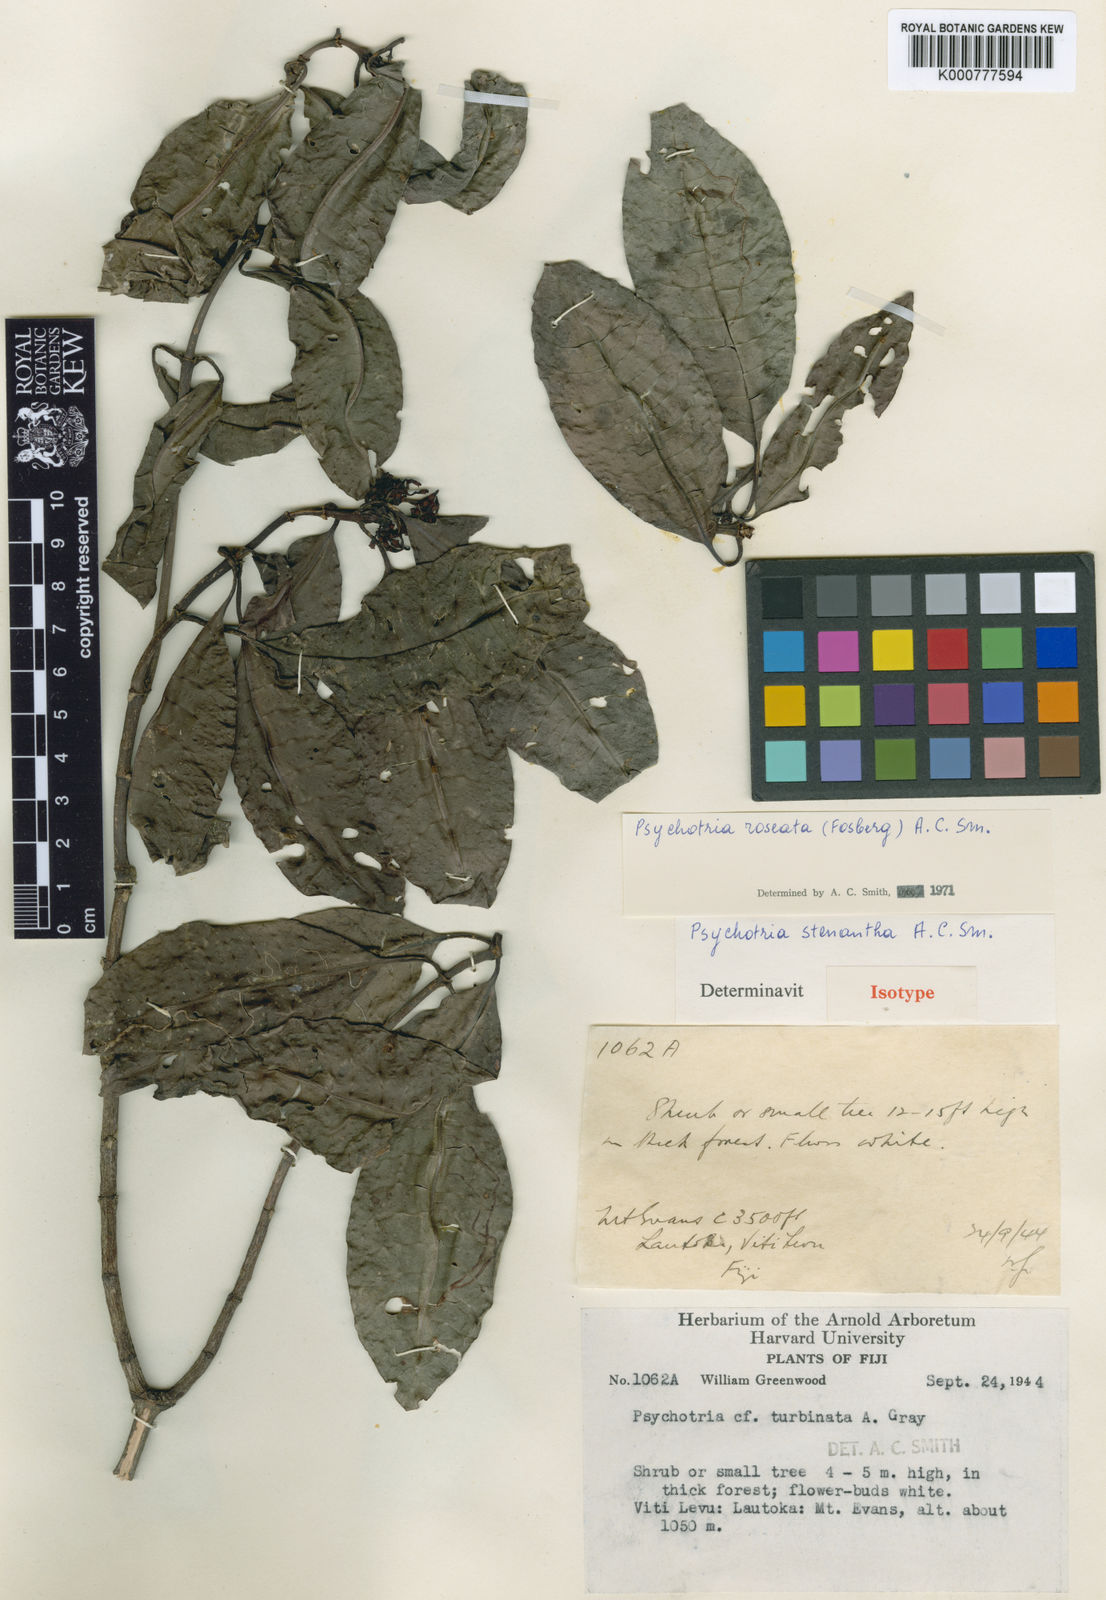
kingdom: Plantae
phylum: Tracheophyta
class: Magnoliopsida
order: Gentianales
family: Rubiaceae
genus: Psychotria
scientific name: Psychotria roseata
